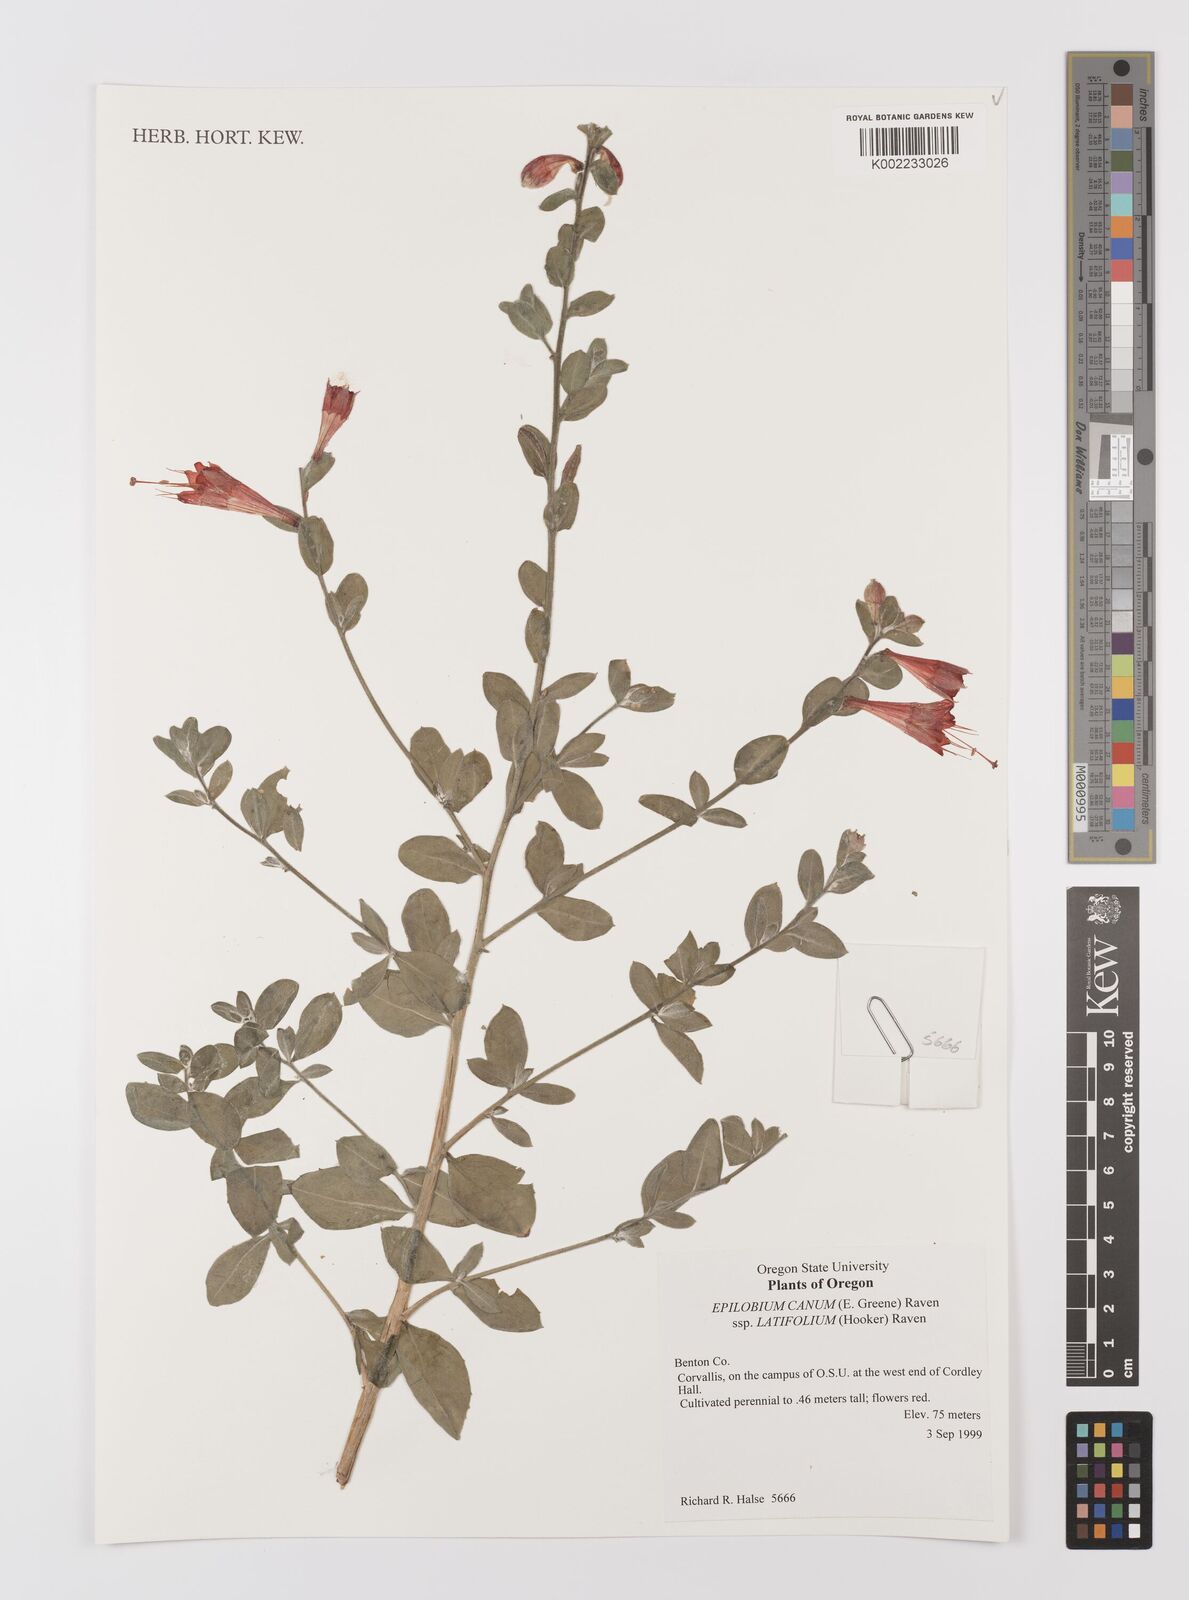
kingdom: Plantae
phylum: Tracheophyta
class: Magnoliopsida
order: Myrtales
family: Onagraceae
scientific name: Onagraceae
